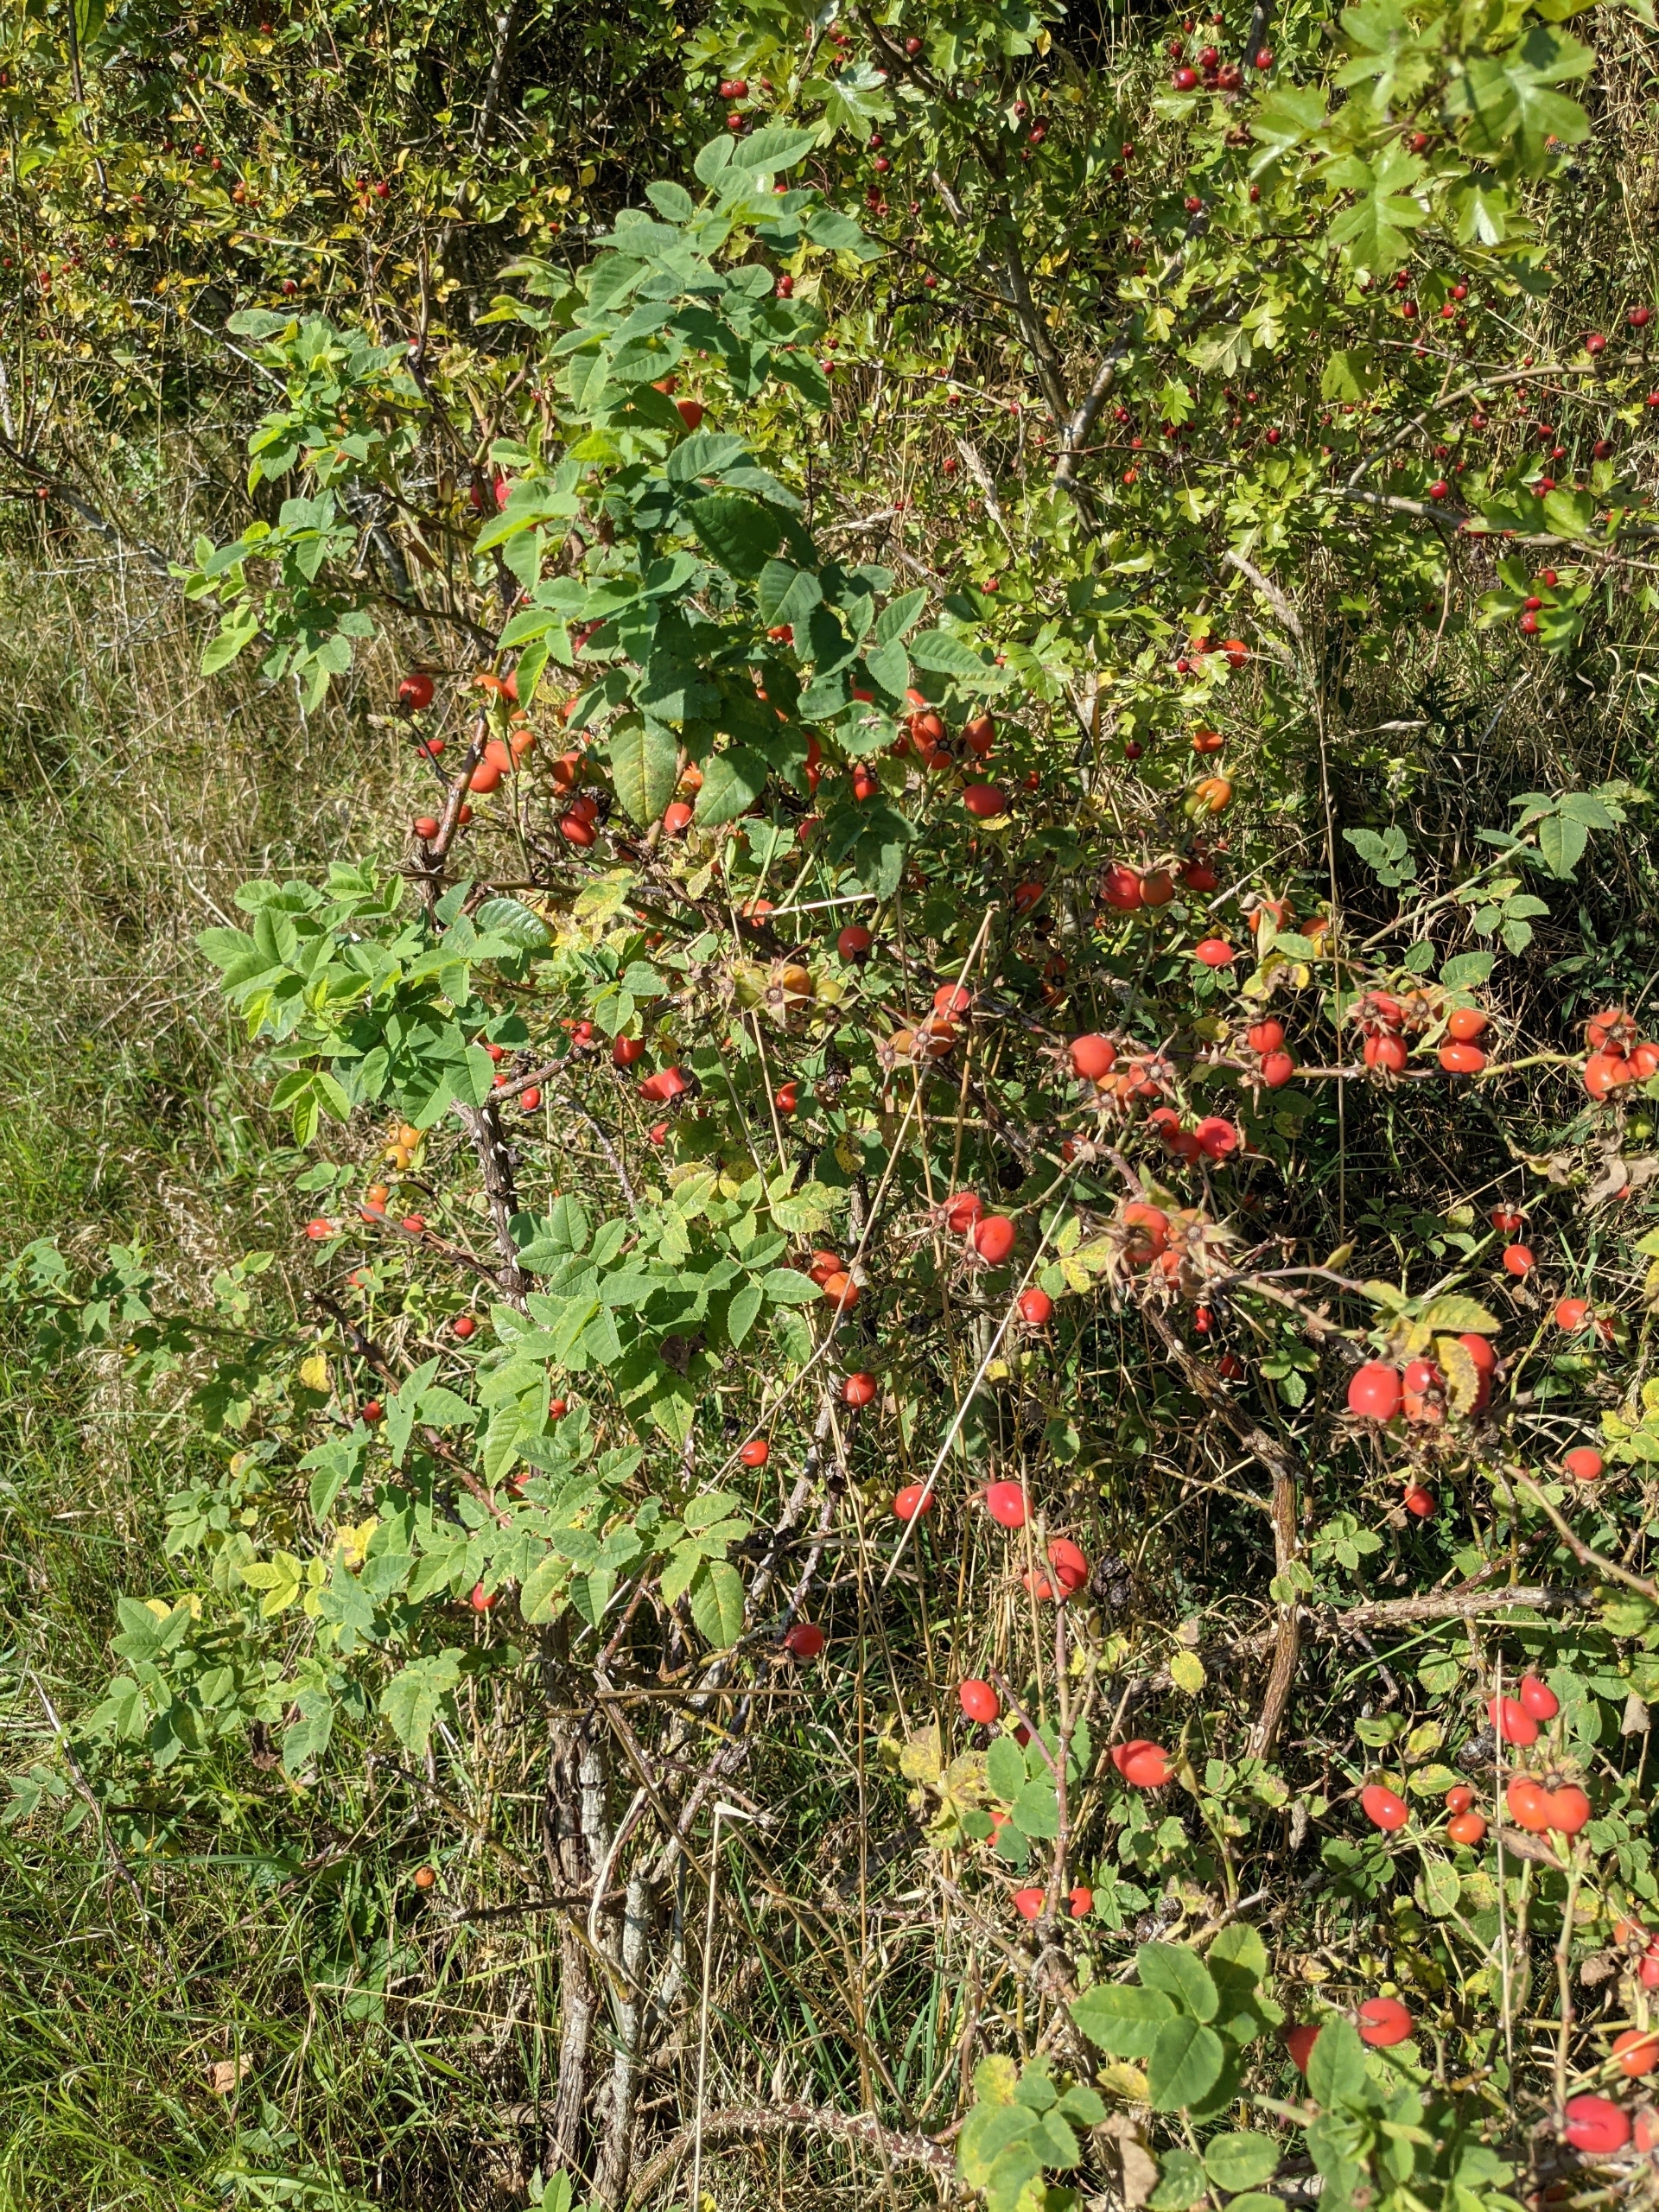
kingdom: Plantae
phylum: Tracheophyta
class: Magnoliopsida
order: Rosales
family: Rosaceae
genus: Rosa
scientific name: Rosa caesia
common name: Håret blågrøn rose
